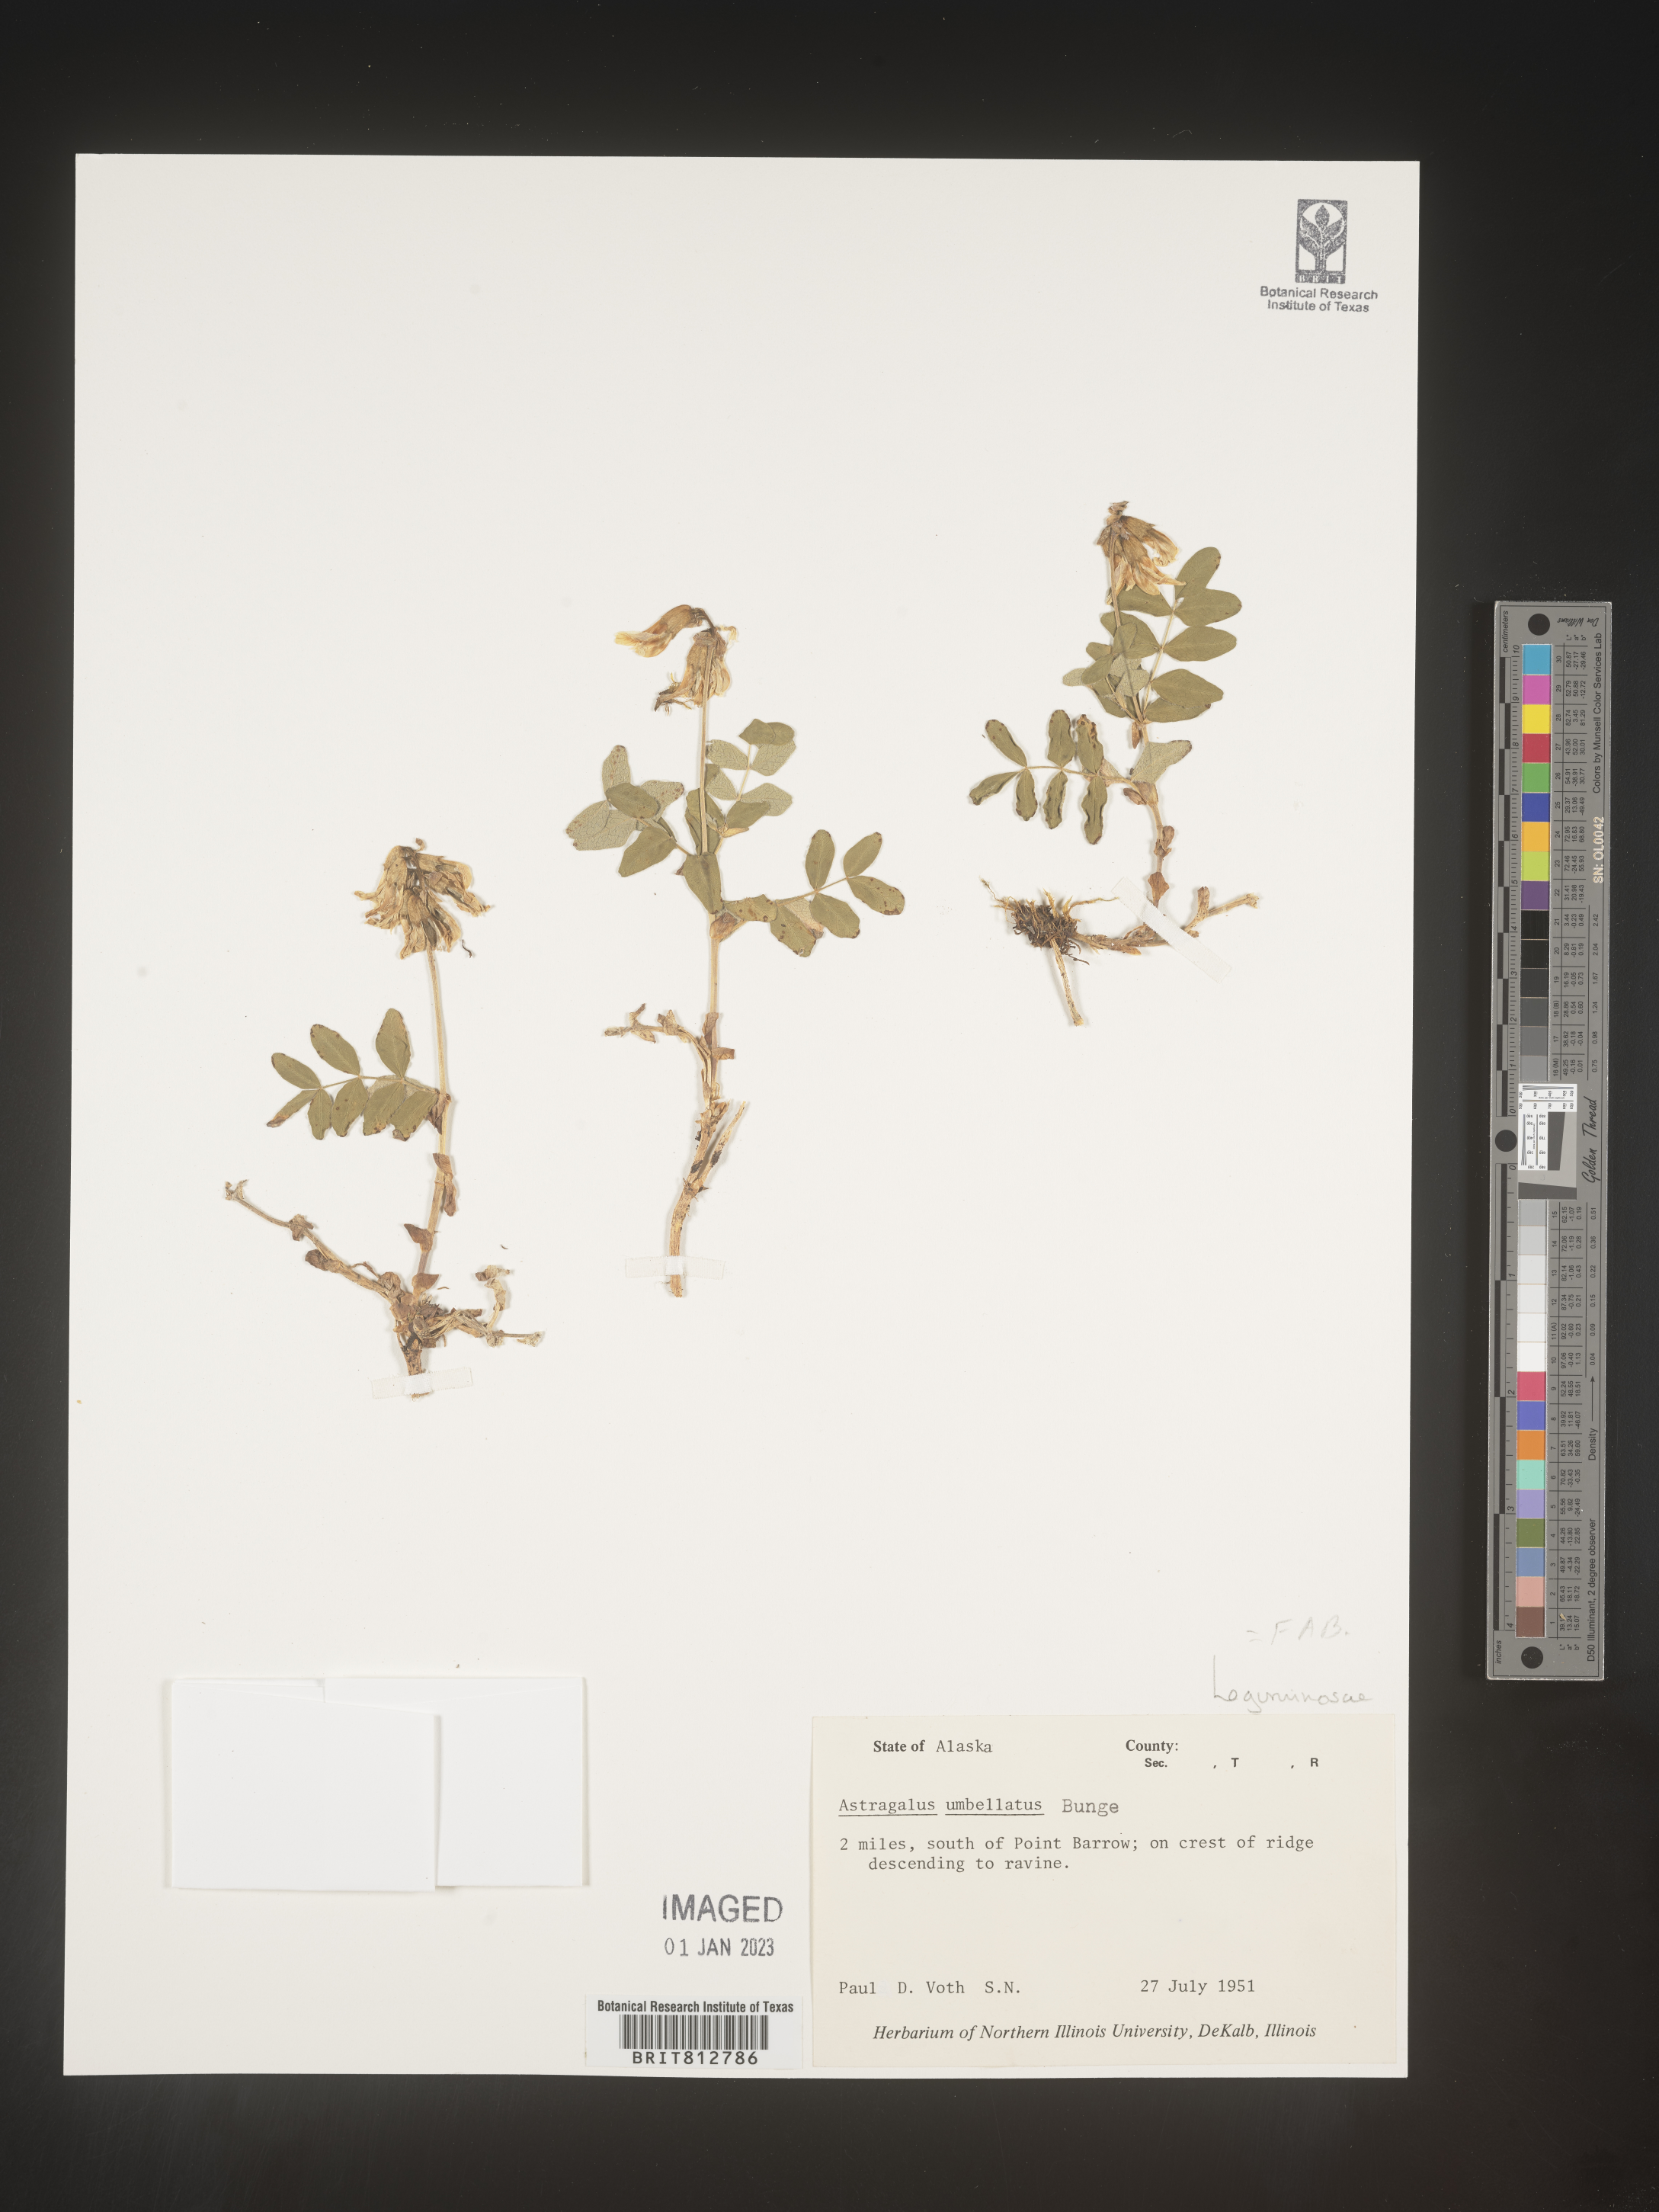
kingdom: Plantae
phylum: Tracheophyta
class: Magnoliopsida
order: Fabales
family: Fabaceae
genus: Astragalus
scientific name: Astragalus
